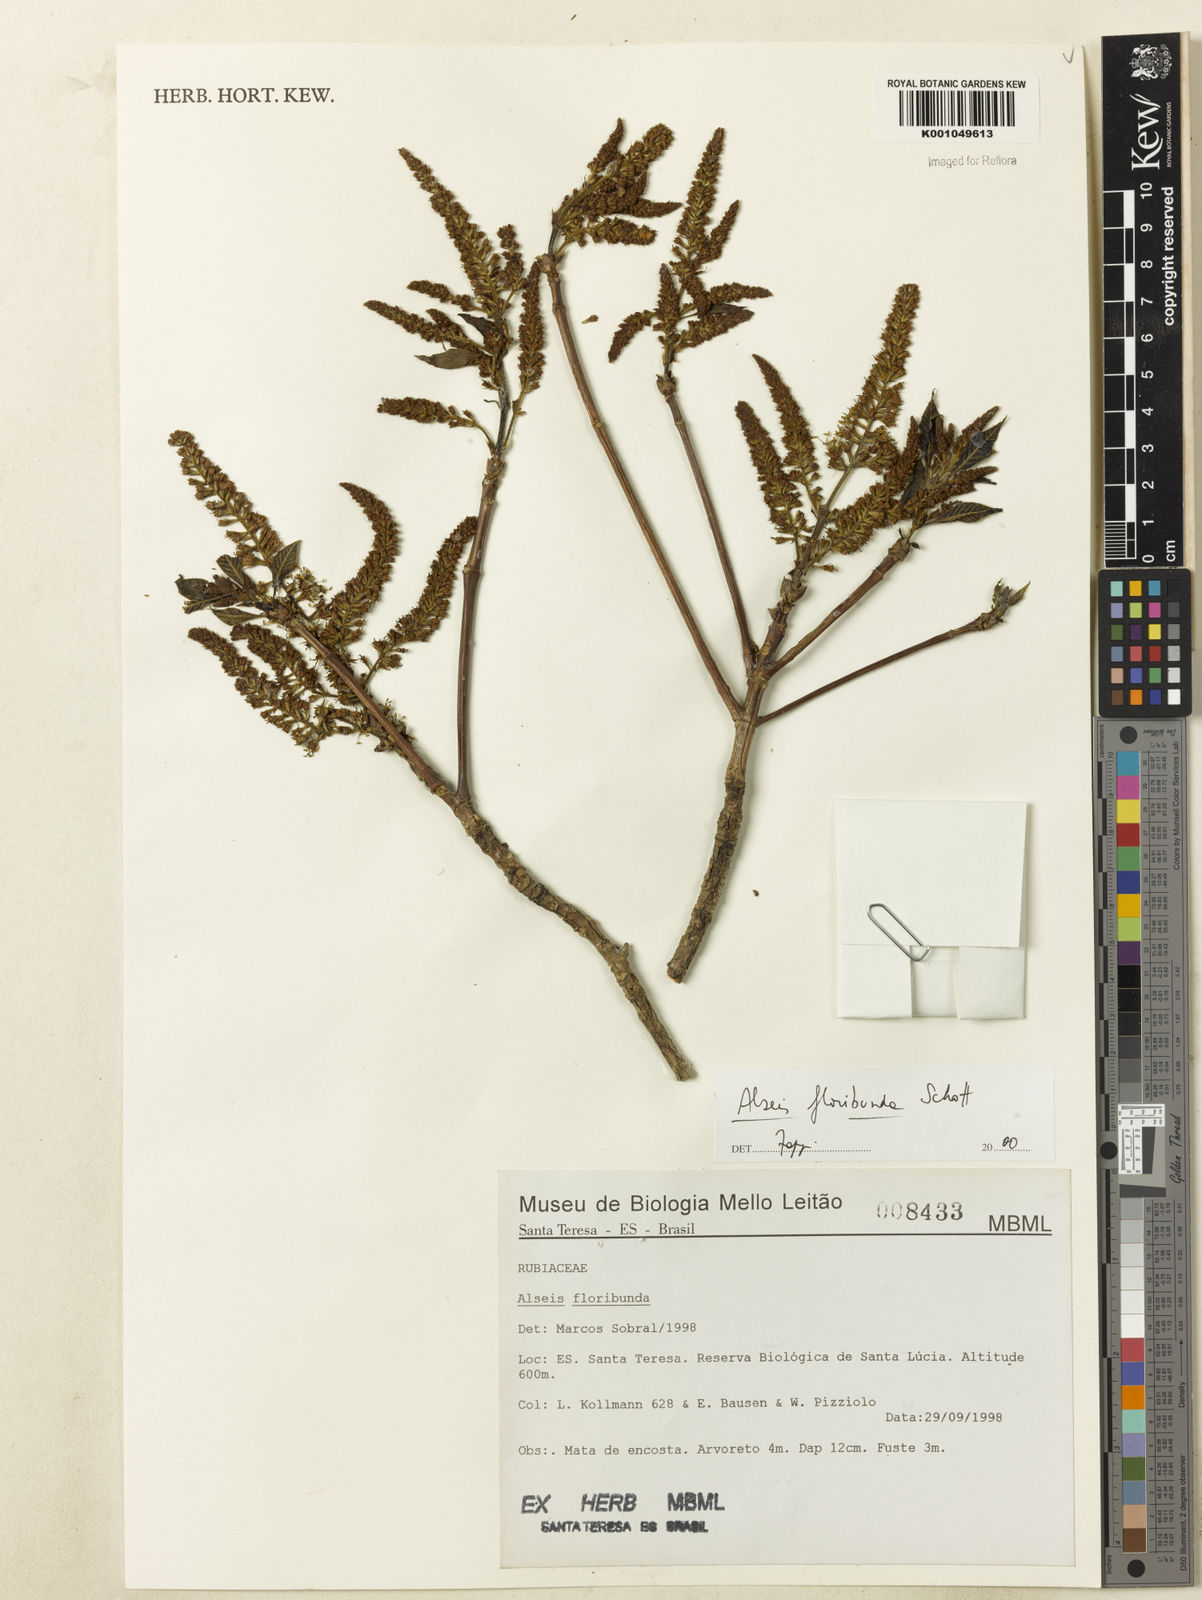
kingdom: Plantae
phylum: Tracheophyta
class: Magnoliopsida
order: Gentianales
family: Rubiaceae
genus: Alseis
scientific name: Alseis floribunda
